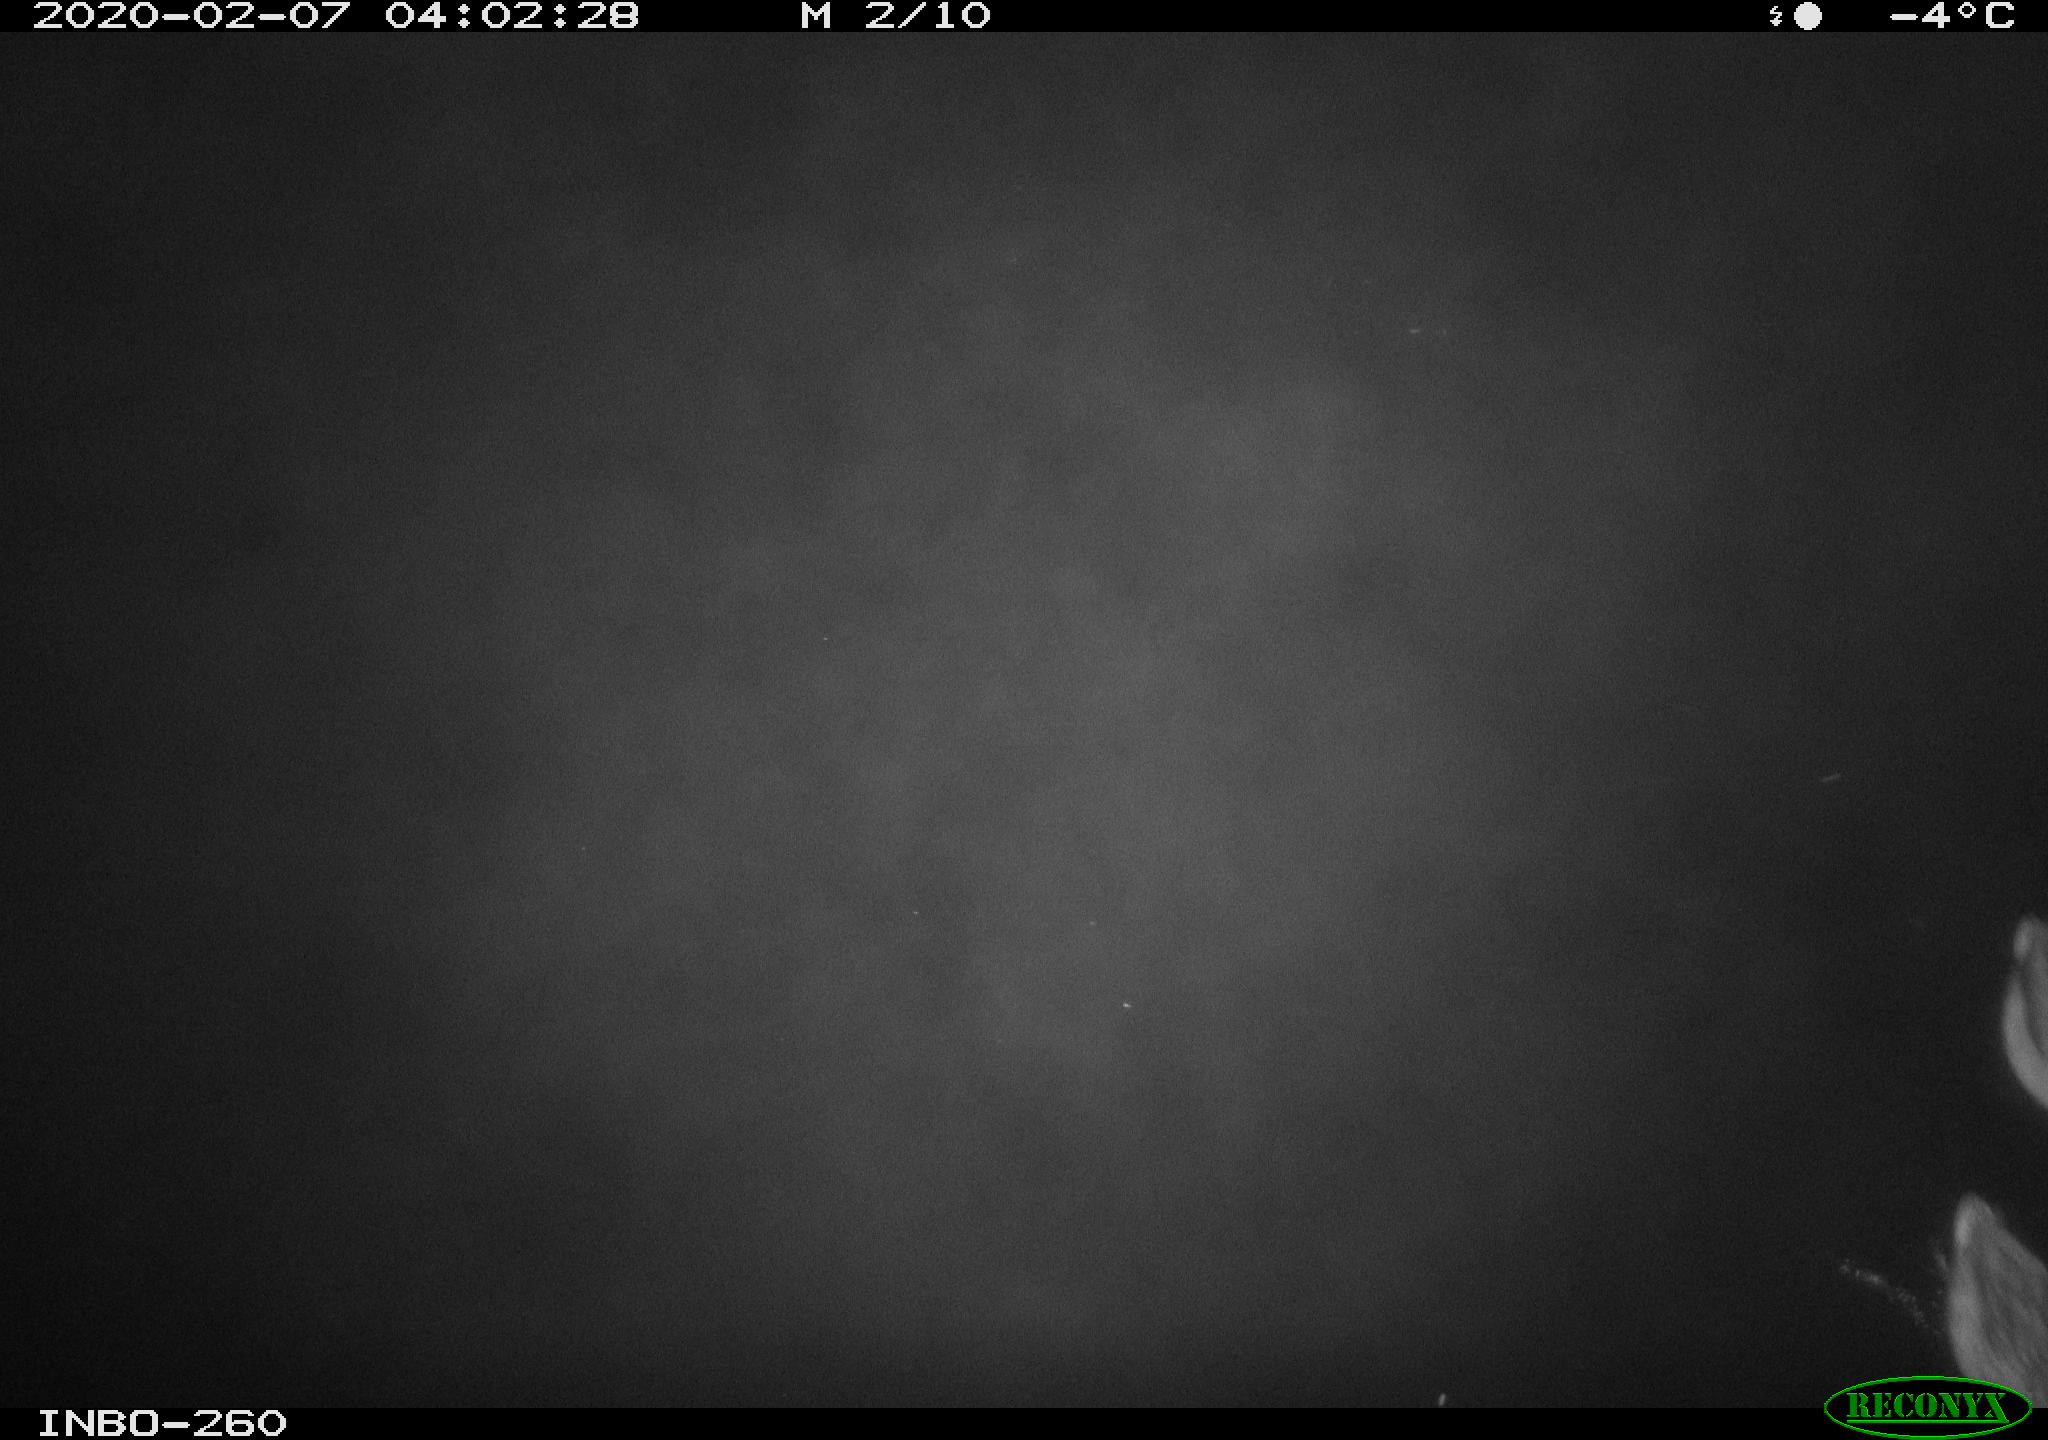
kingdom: Animalia
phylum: Chordata
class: Aves
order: Anseriformes
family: Anatidae
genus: Anas
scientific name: Anas platyrhynchos
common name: Mallard
